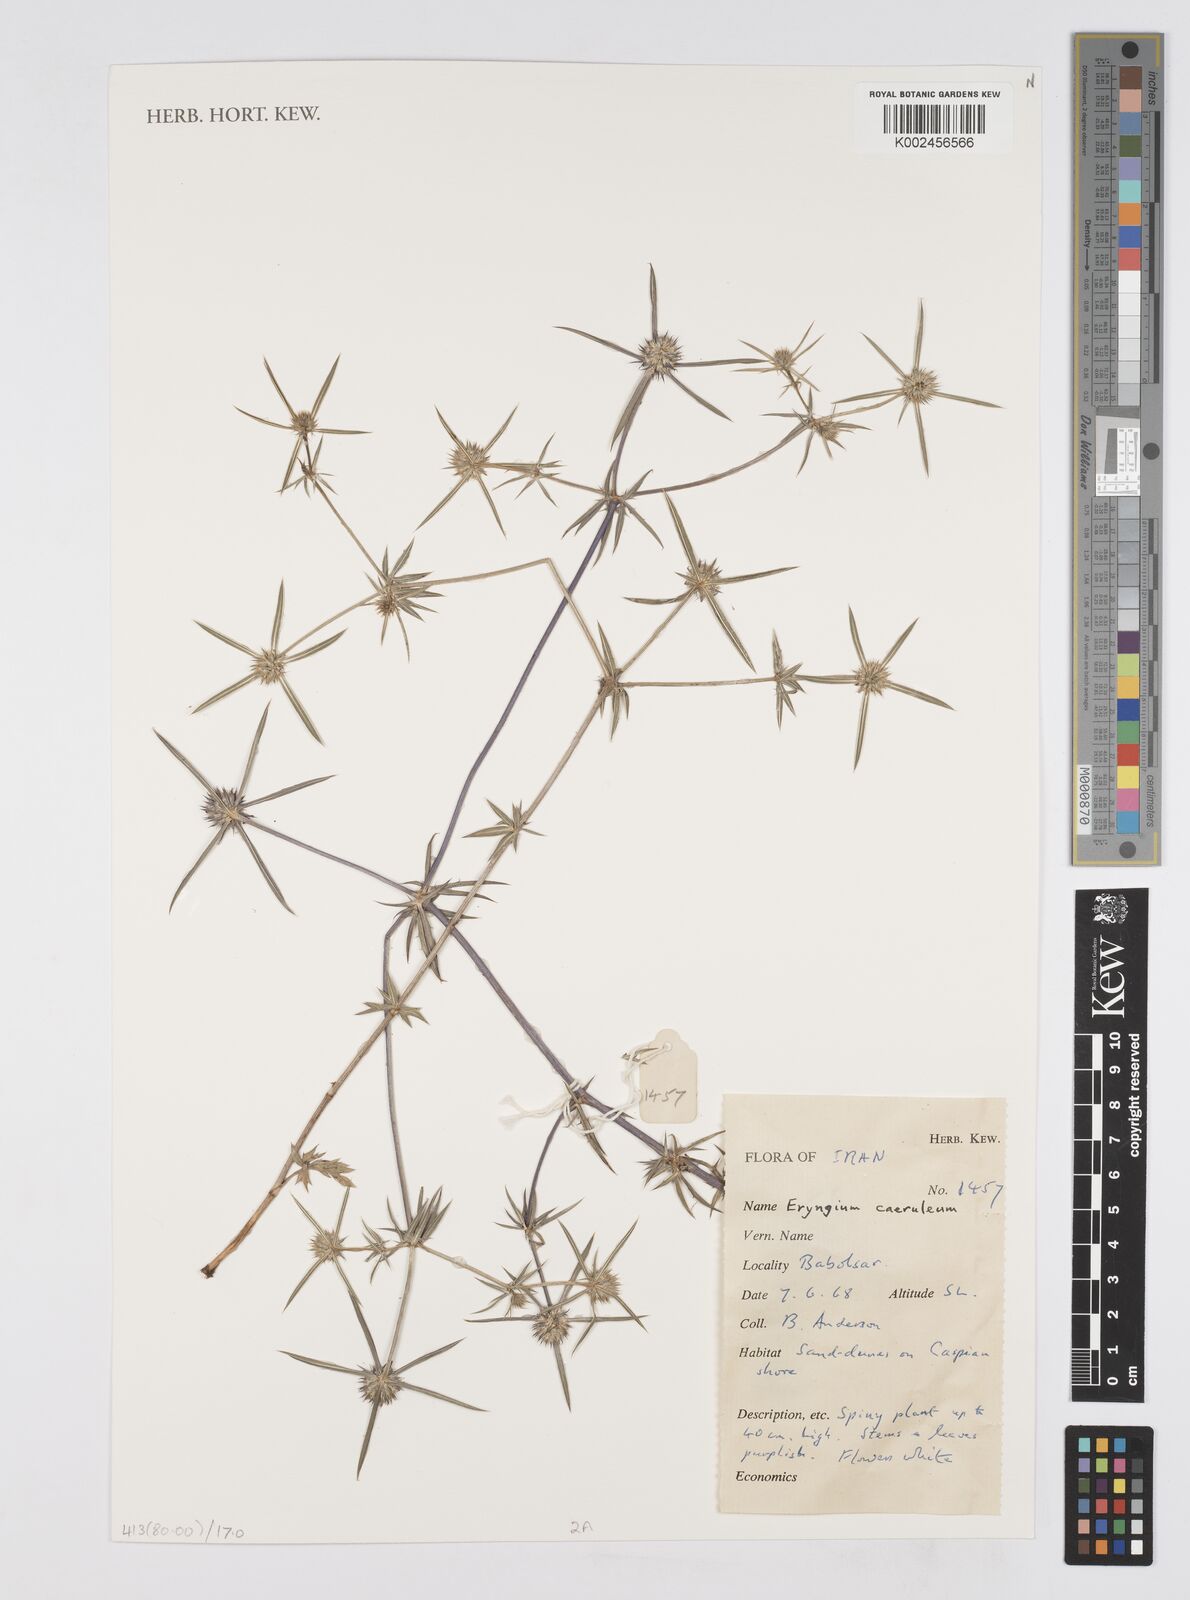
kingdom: Plantae
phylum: Tracheophyta
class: Magnoliopsida
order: Apiales
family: Apiaceae
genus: Eryngium
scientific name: Eryngium caeruleum
